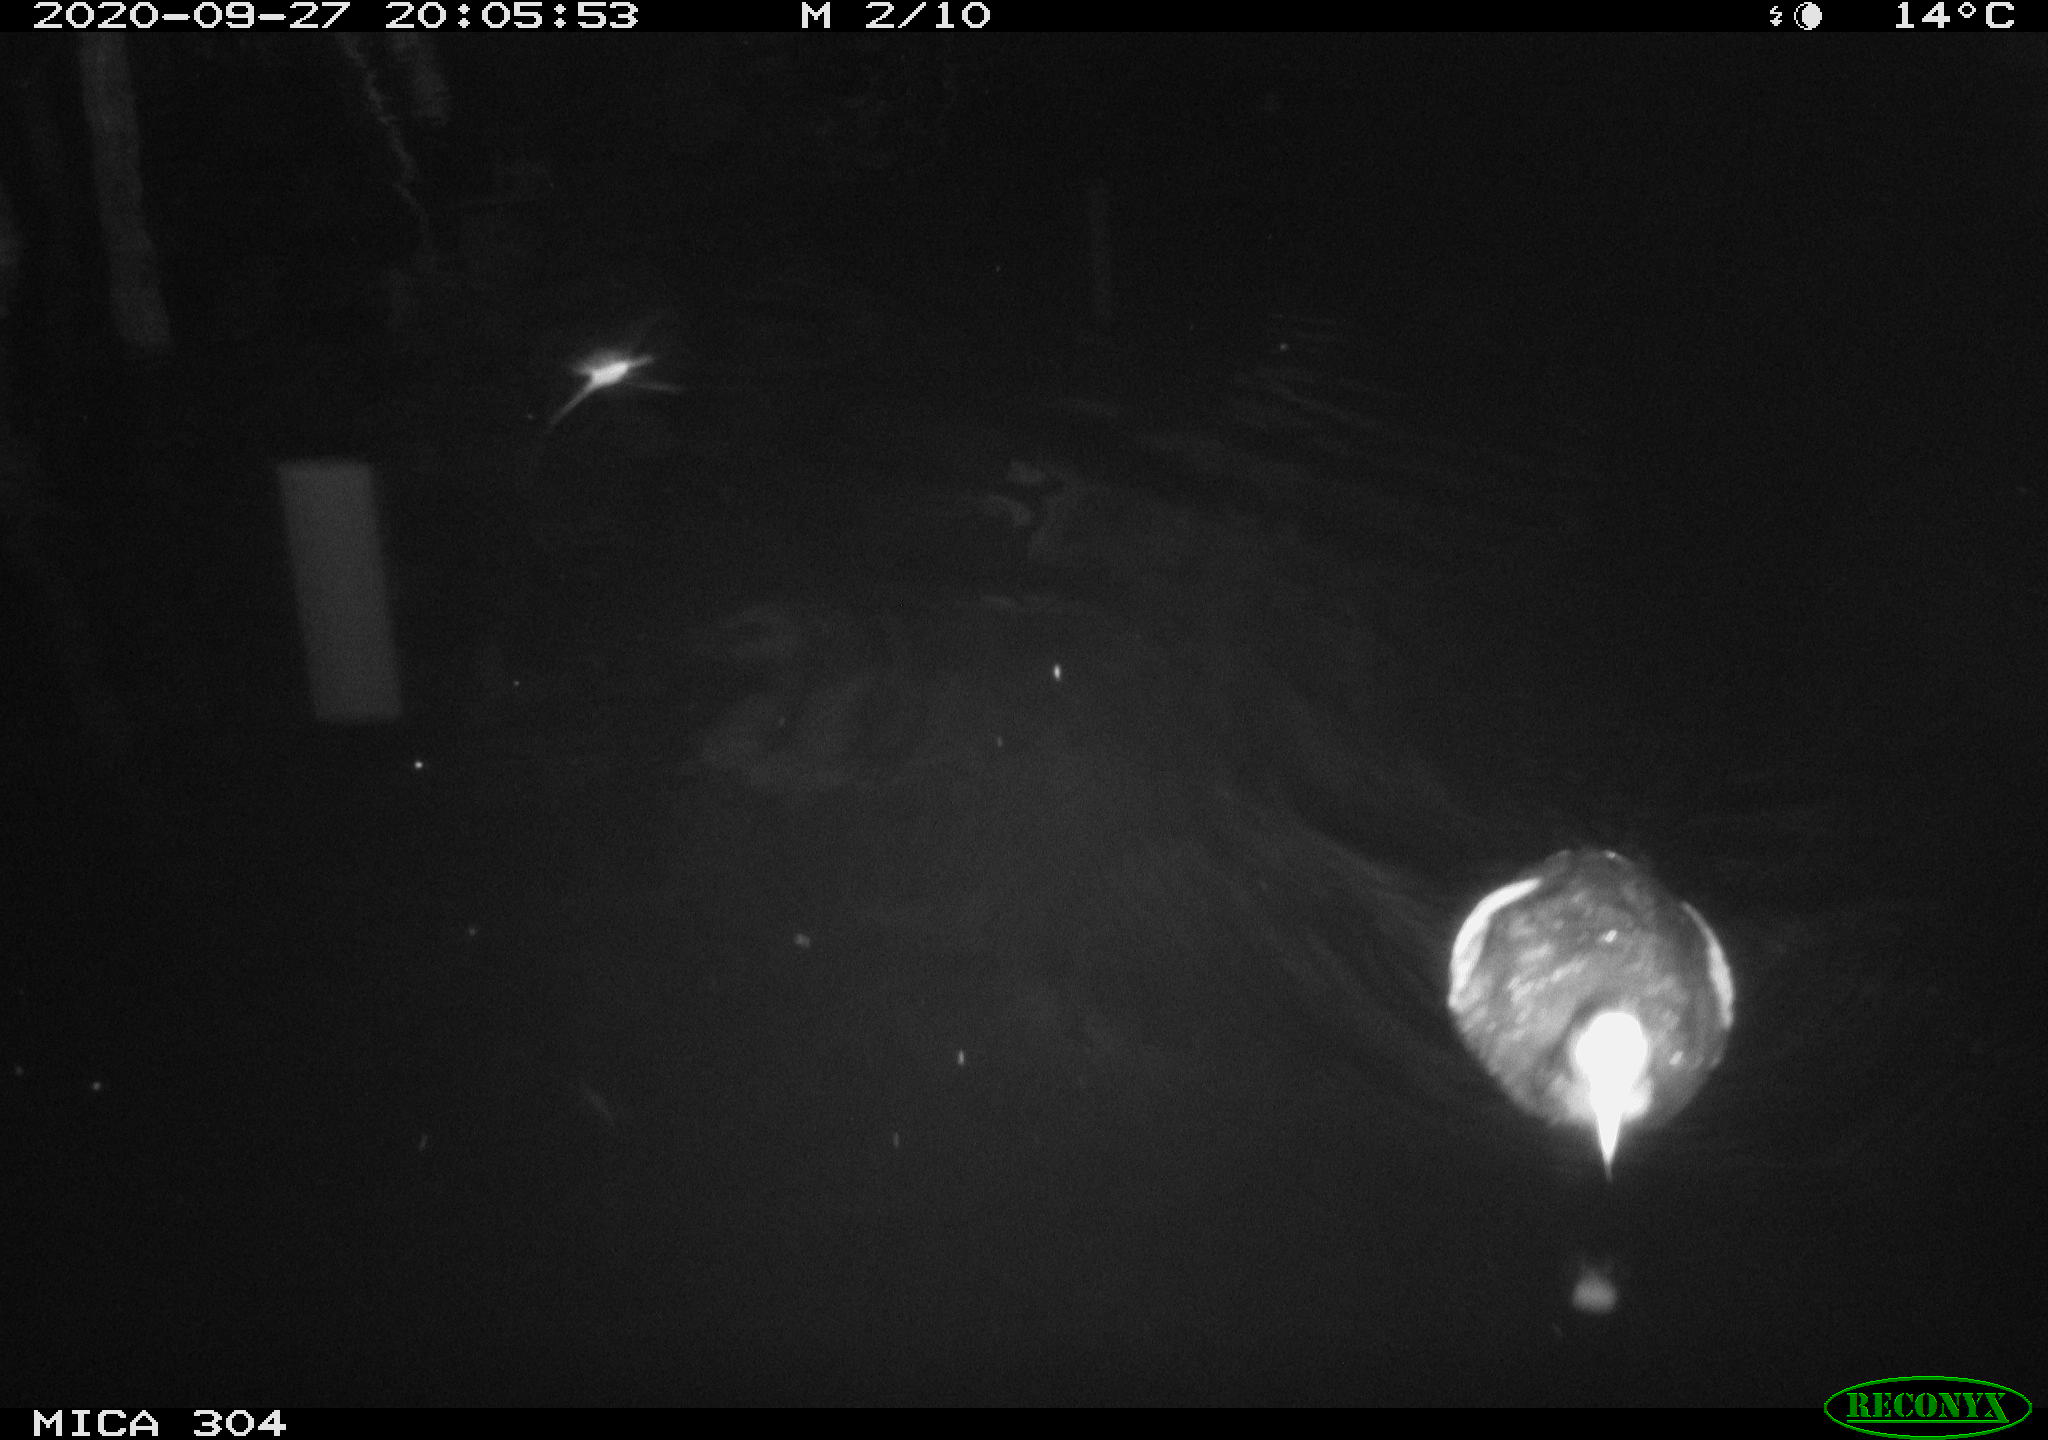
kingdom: Animalia
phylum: Chordata
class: Aves
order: Gruiformes
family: Rallidae
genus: Fulica
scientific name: Fulica atra
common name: Eurasian coot
